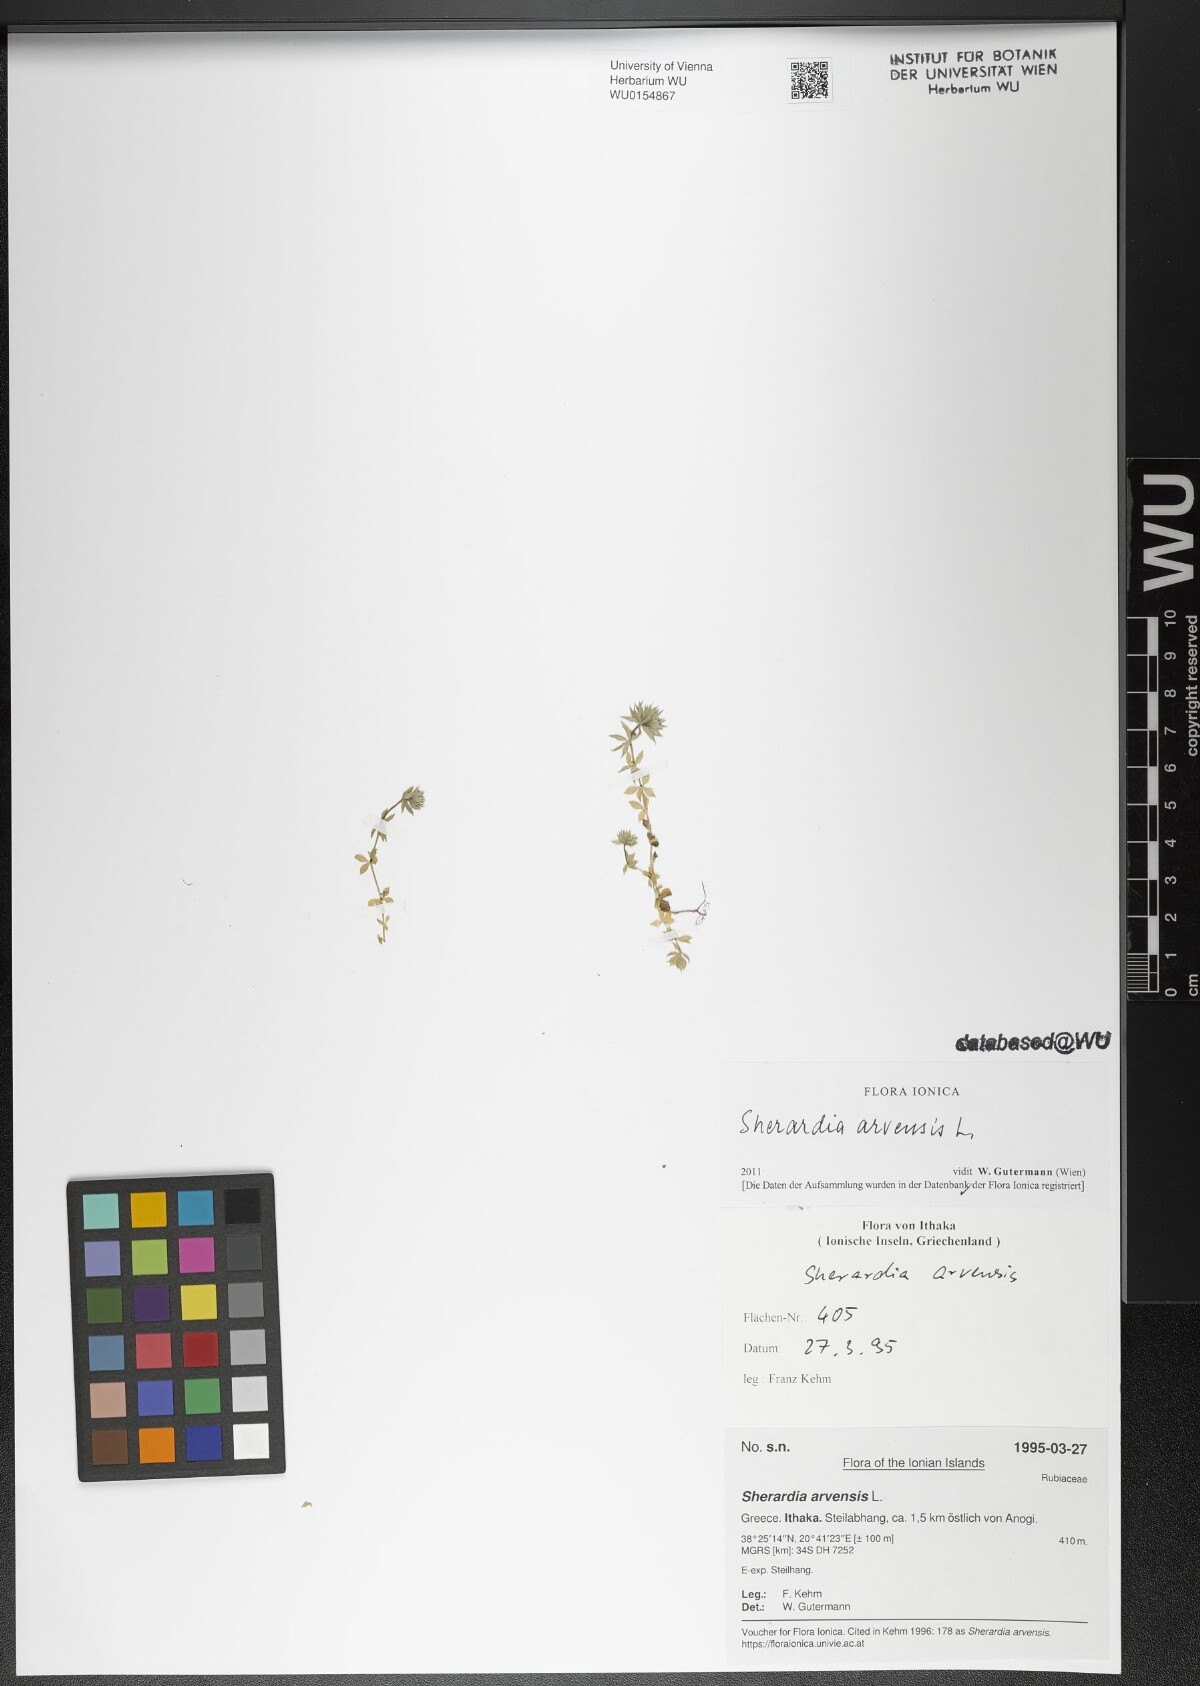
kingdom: Plantae
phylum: Tracheophyta
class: Magnoliopsida
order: Gentianales
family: Rubiaceae
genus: Sherardia
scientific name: Sherardia arvensis
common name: Field madder
